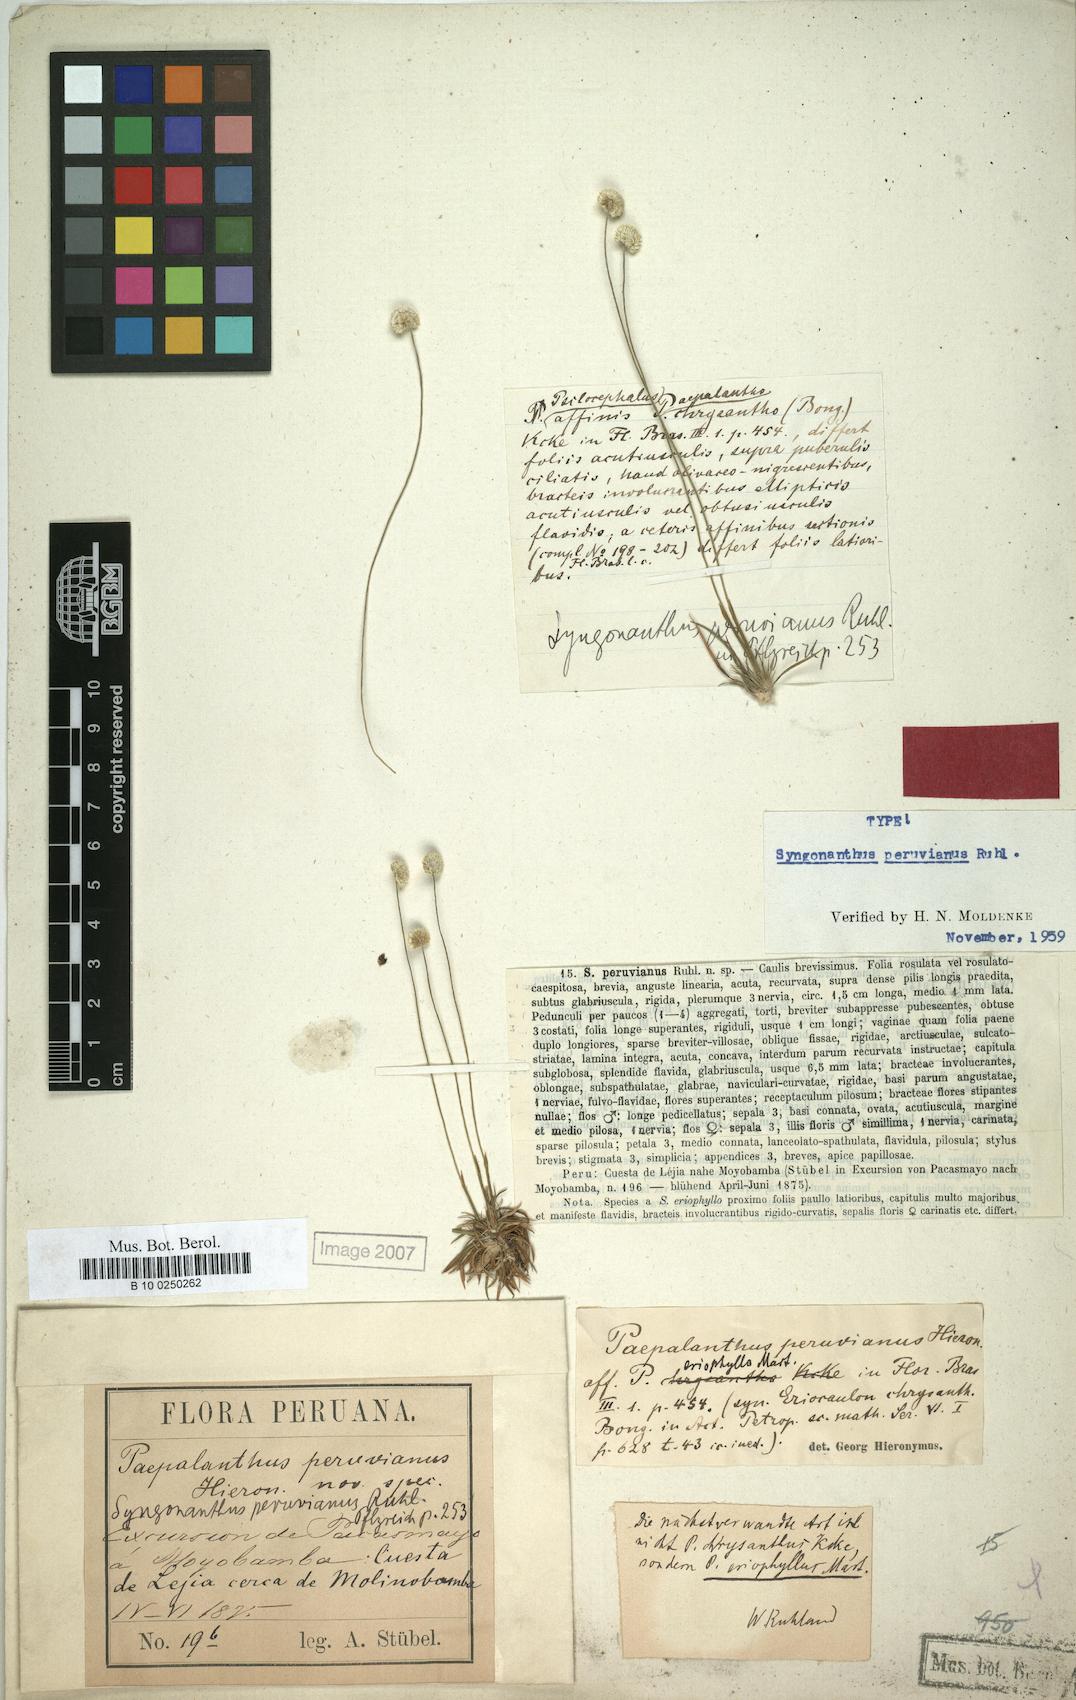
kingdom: Plantae
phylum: Tracheophyta
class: Liliopsida
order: Poales
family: Eriocaulaceae
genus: Syngonanthus
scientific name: Syngonanthus peruvianus
